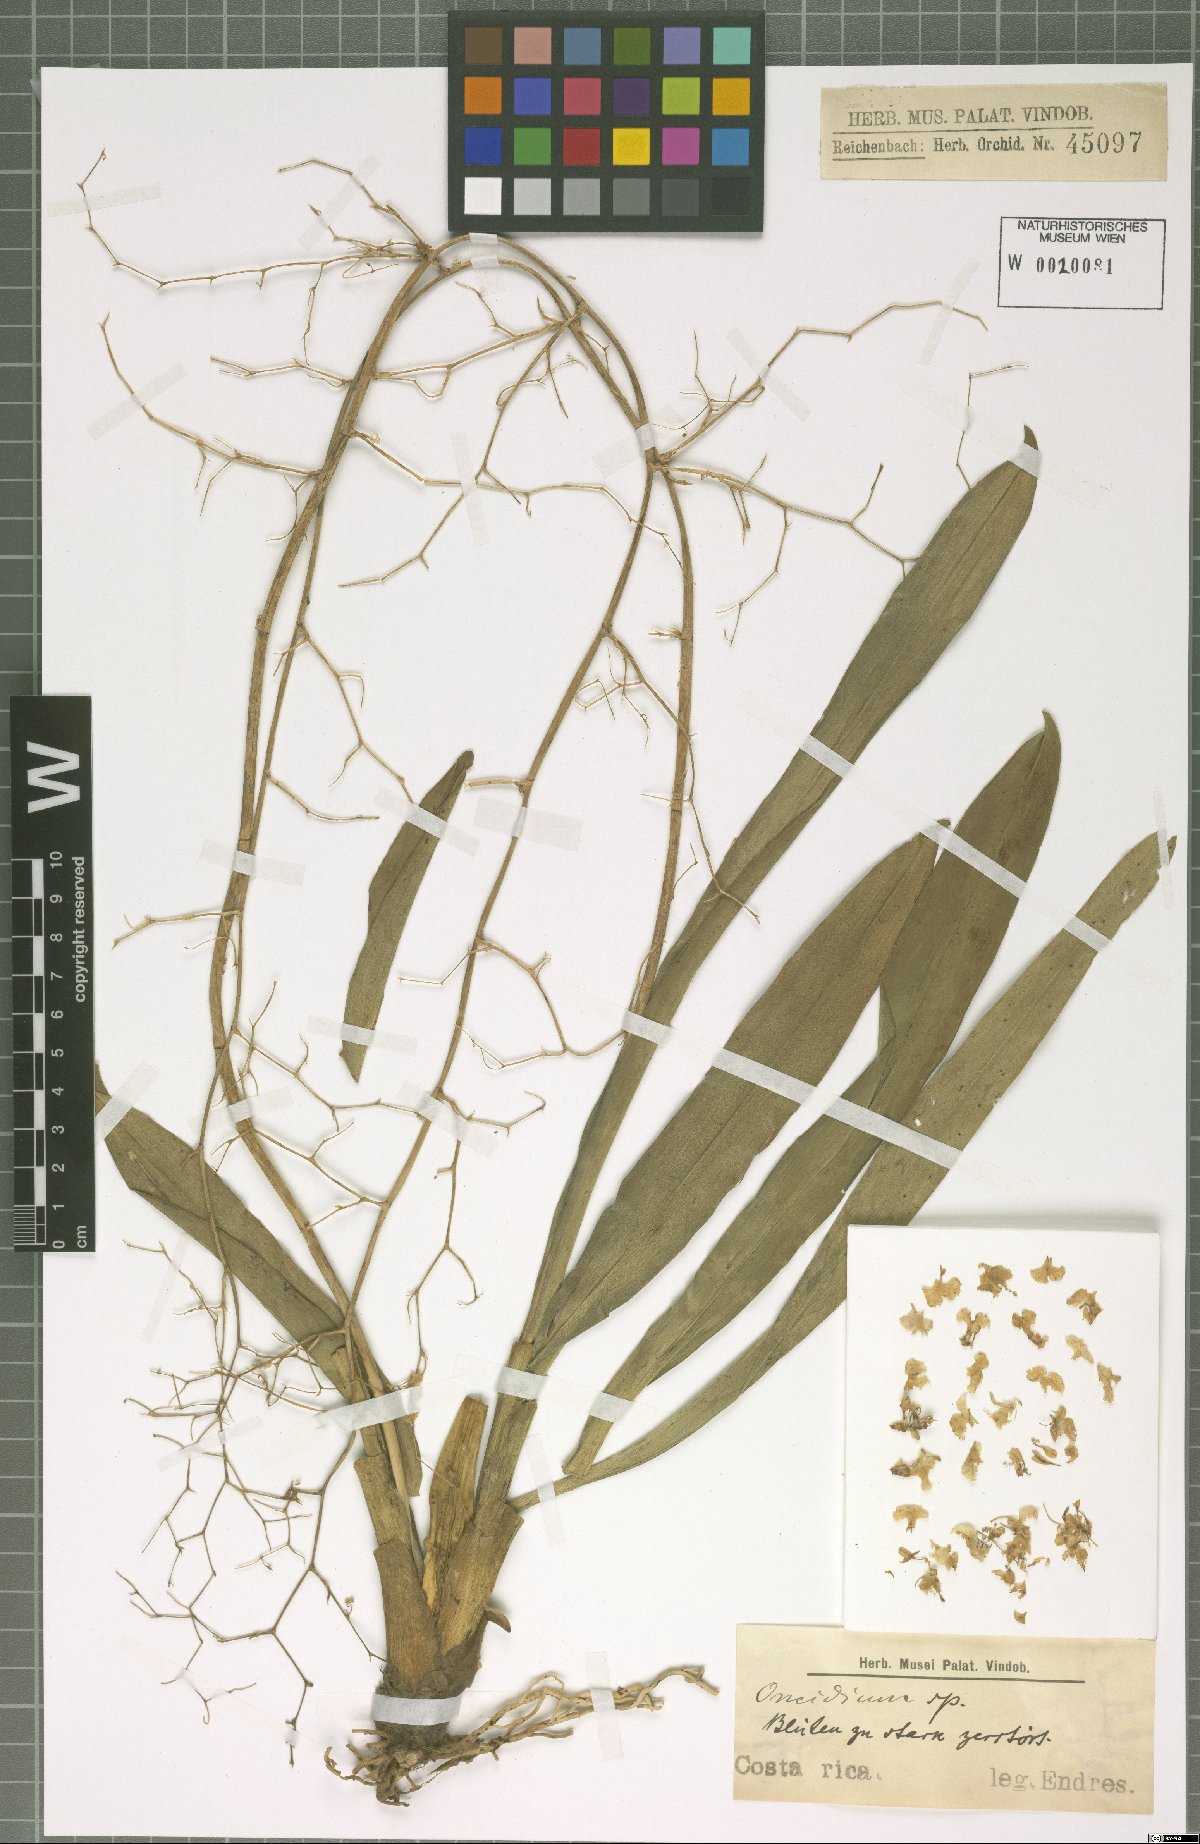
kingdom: Plantae
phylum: Tracheophyta
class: Liliopsida
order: Asparagales
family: Orchidaceae
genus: Oncidium
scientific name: Oncidium
